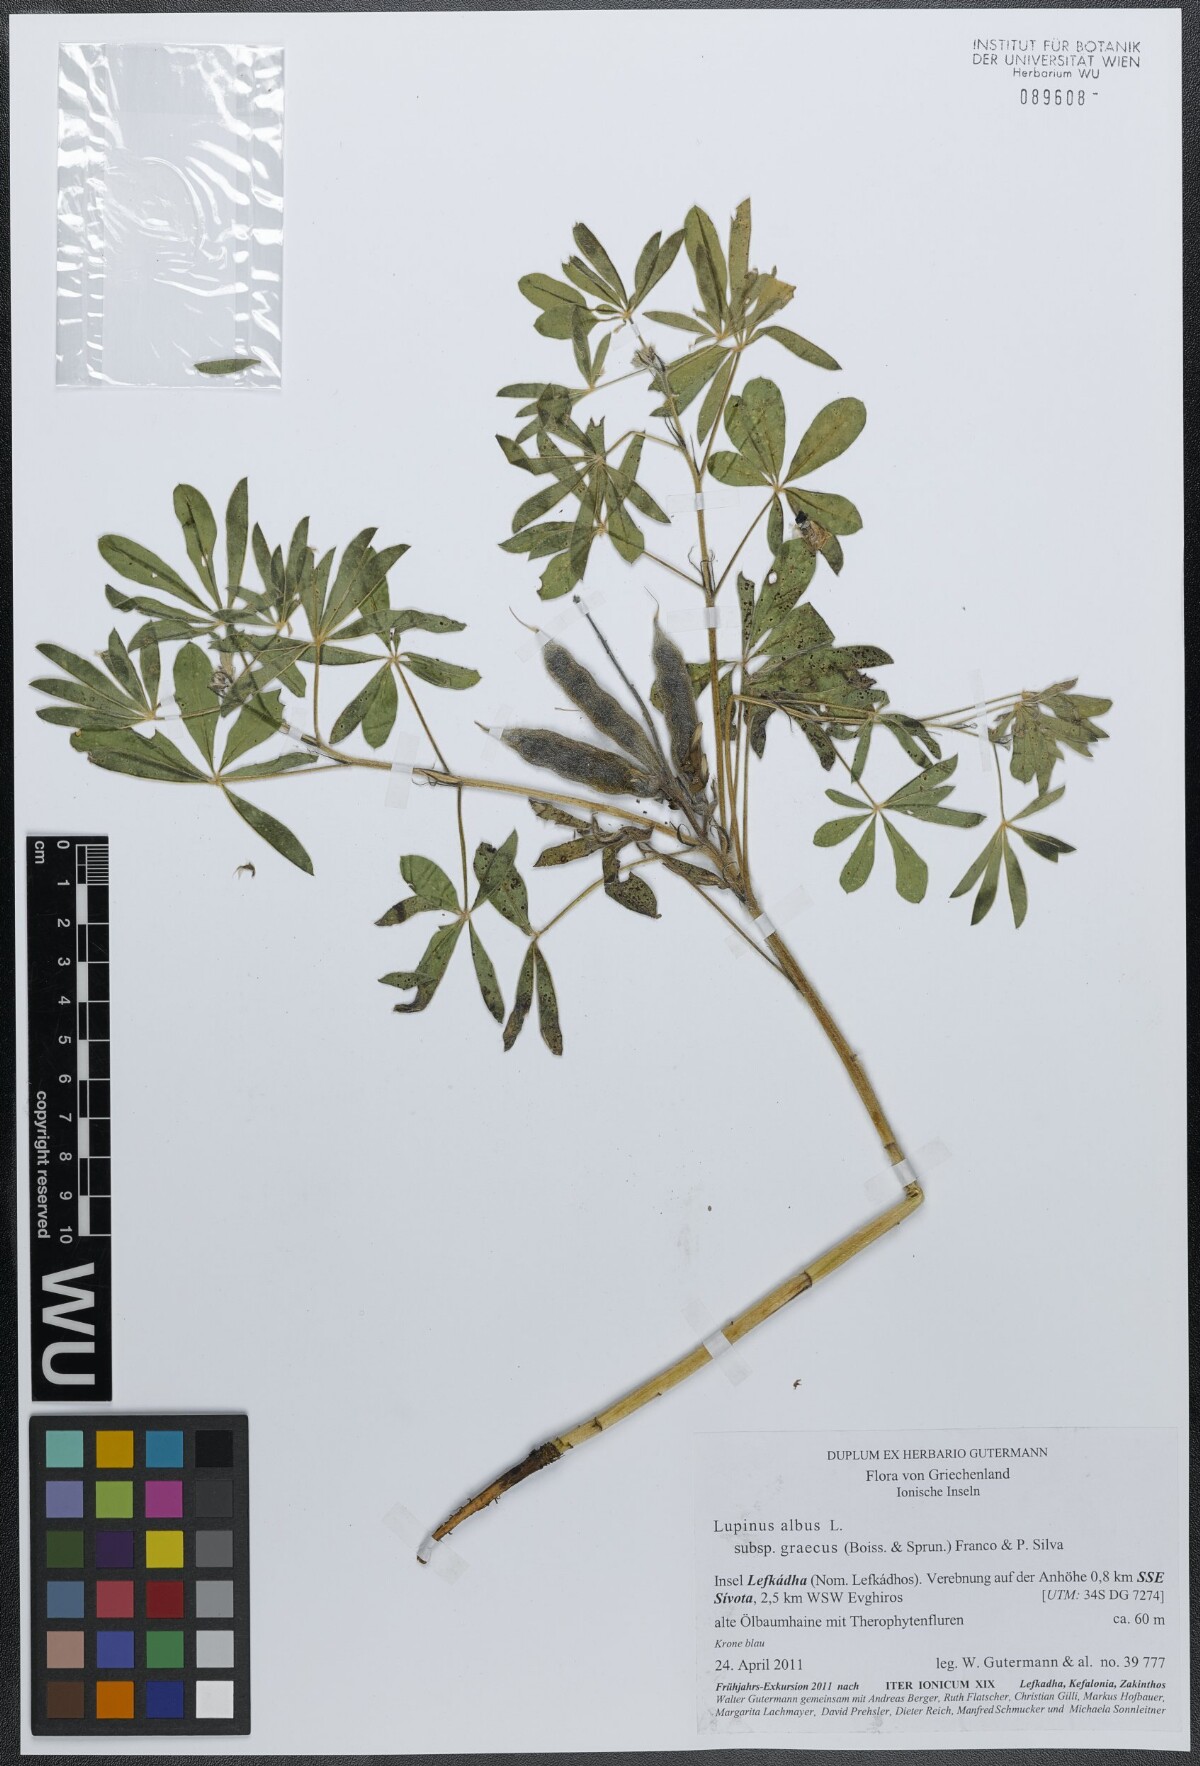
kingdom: Plantae
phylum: Tracheophyta
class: Magnoliopsida
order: Fabales
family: Fabaceae
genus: Lupinus
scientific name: Lupinus albus
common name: White lupin
